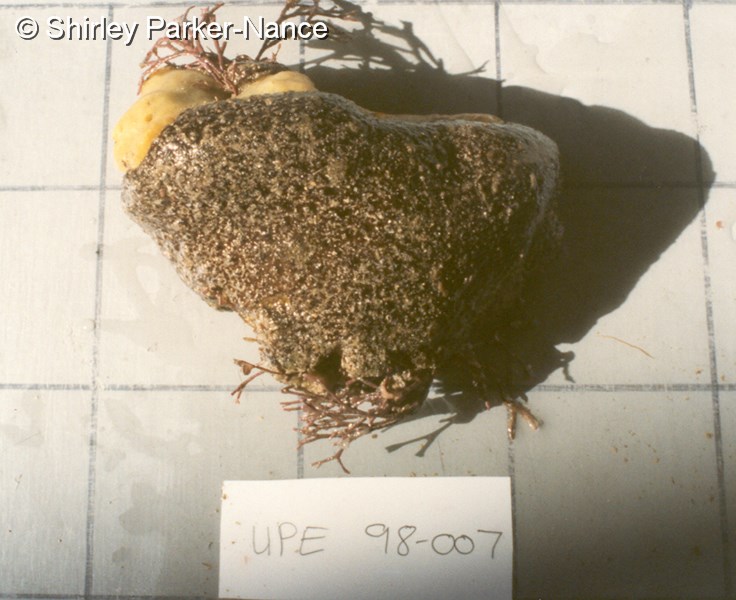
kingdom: Animalia
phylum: Chordata
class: Ascidiacea
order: Aplousobranchia
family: Polyclinidae
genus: Aplidium
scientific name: Aplidium
